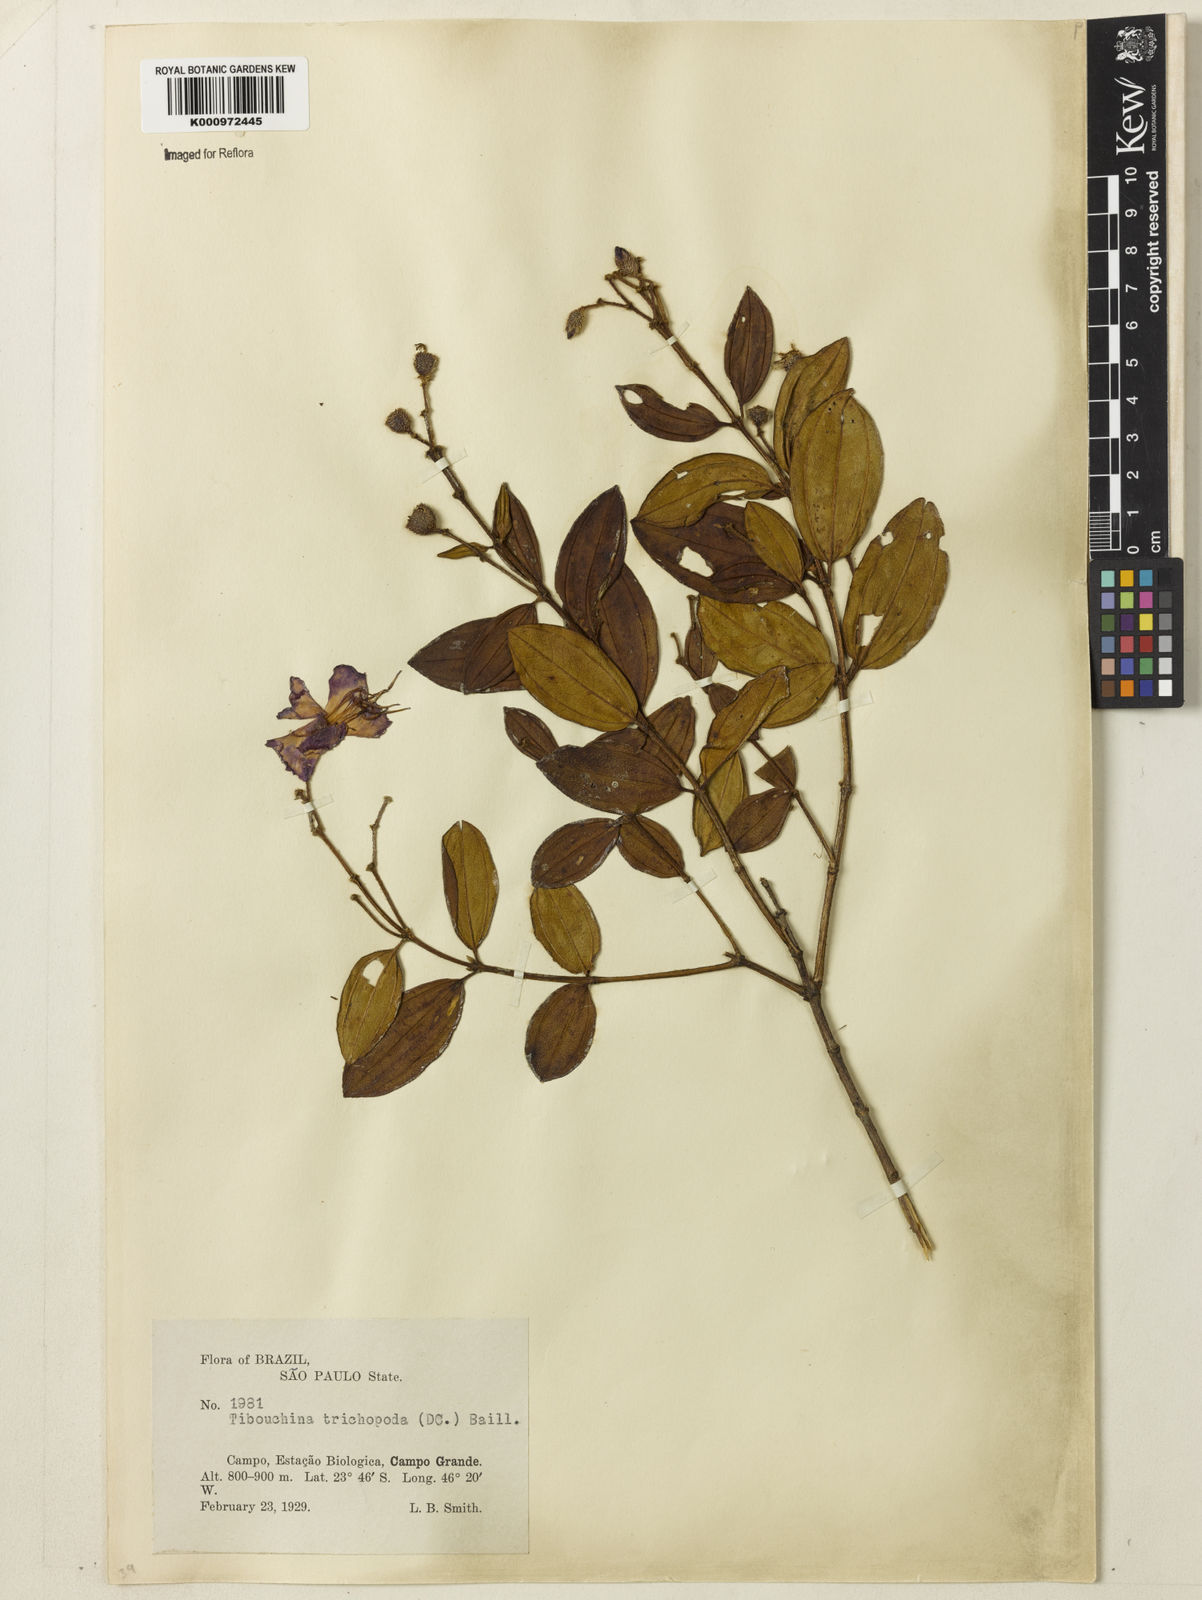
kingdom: Plantae
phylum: Tracheophyta
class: Magnoliopsida
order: Myrtales
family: Melastomataceae
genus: Pleroma
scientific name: Pleroma trichopodum
